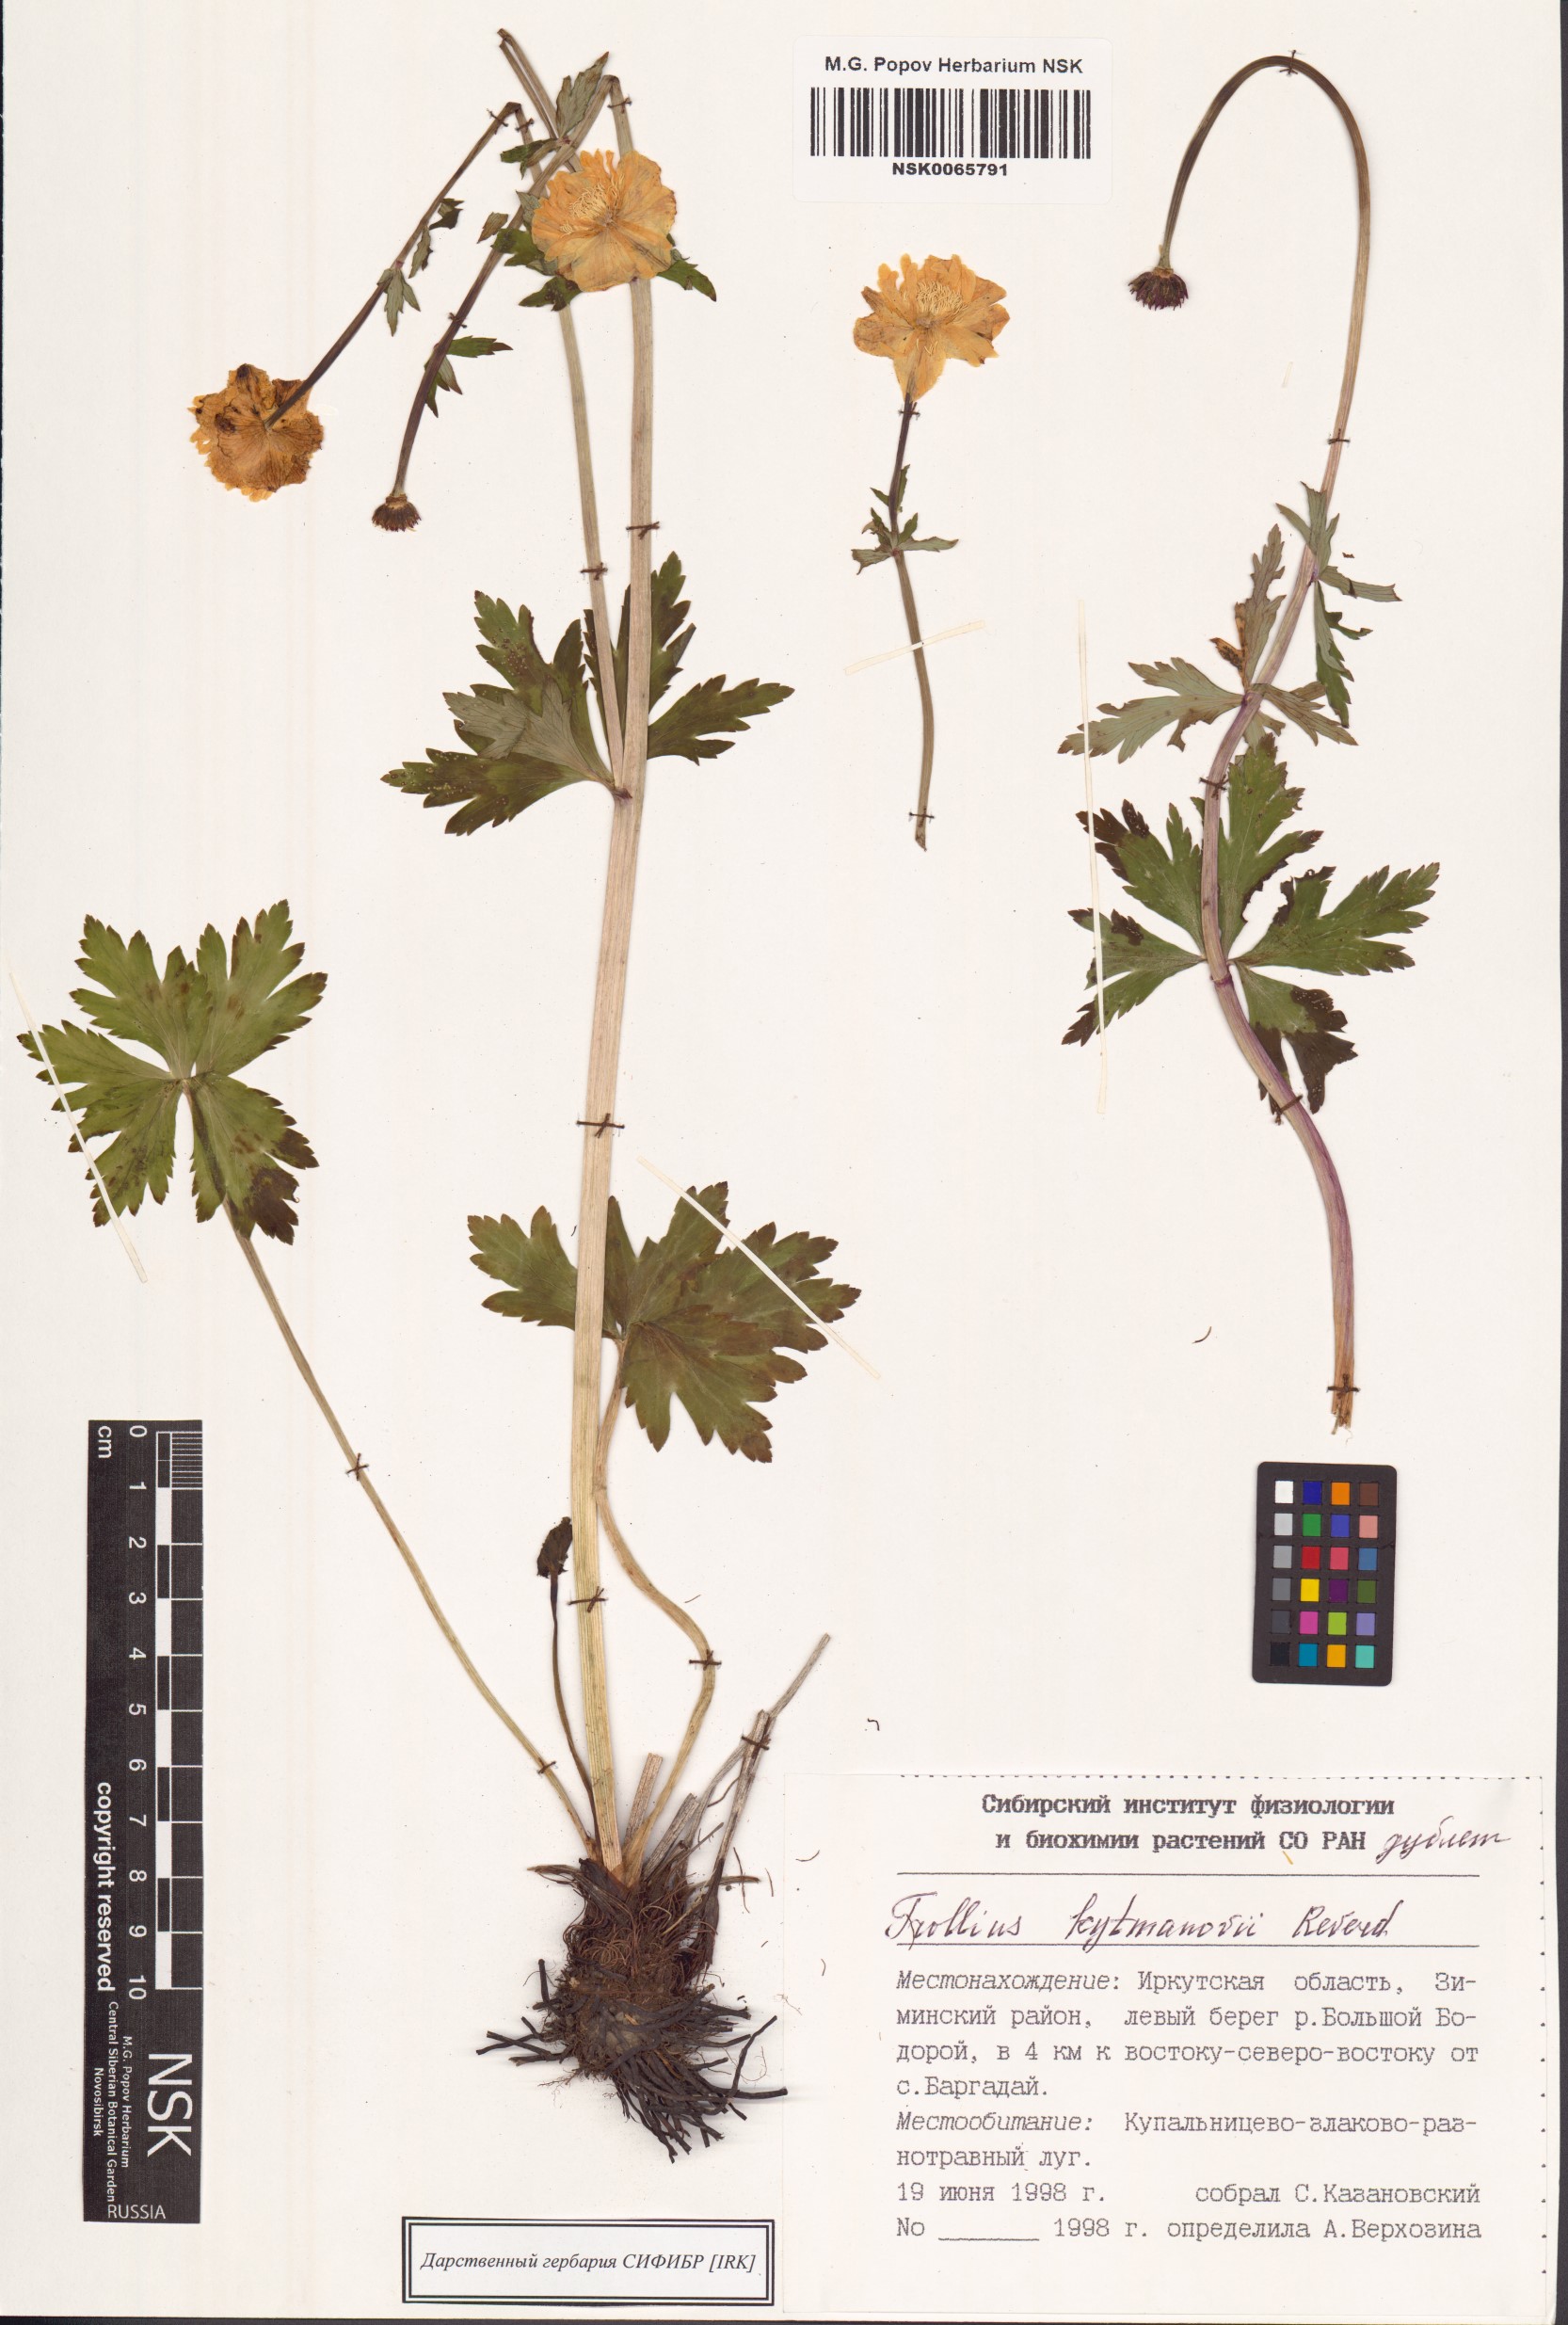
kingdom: Plantae
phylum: Tracheophyta
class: Magnoliopsida
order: Ranunculales
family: Ranunculaceae
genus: Trollius
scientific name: Trollius asiaticus
